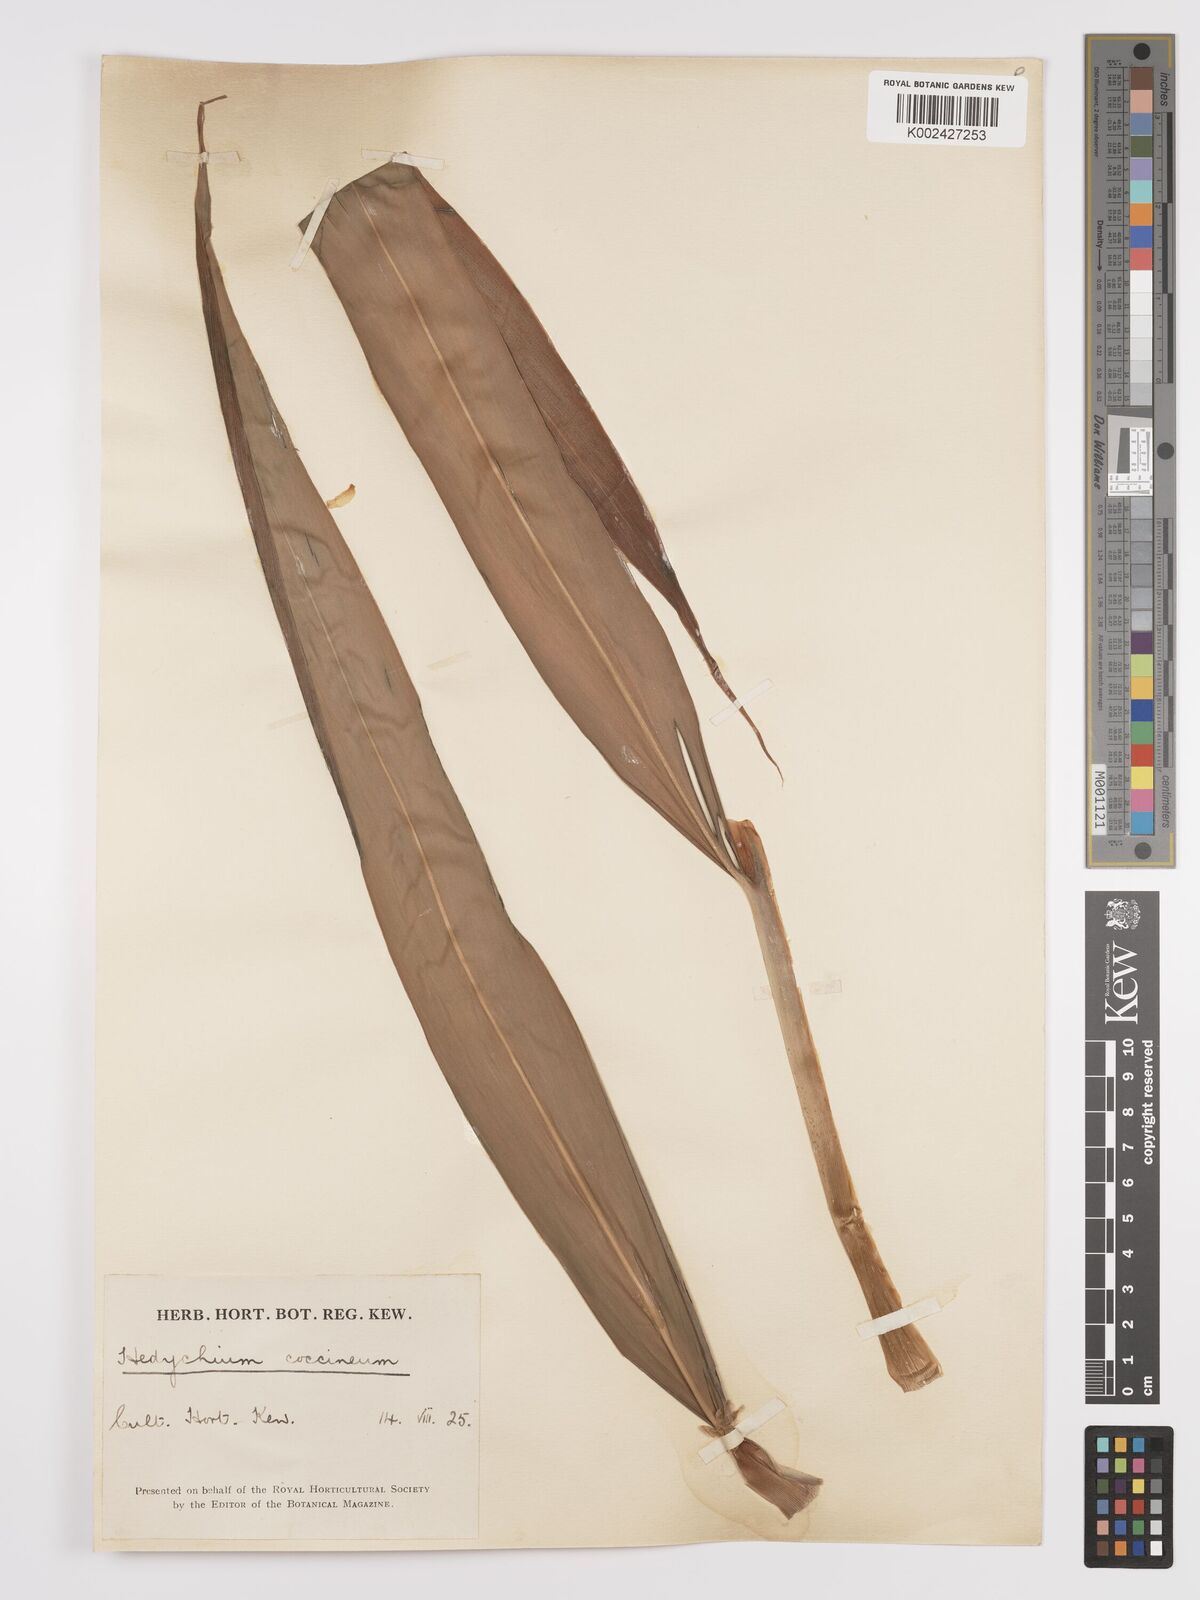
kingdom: Plantae
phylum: Tracheophyta
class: Liliopsida
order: Zingiberales
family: Zingiberaceae
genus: Hedychium
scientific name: Hedychium coccineum
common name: Red ginger-lily
